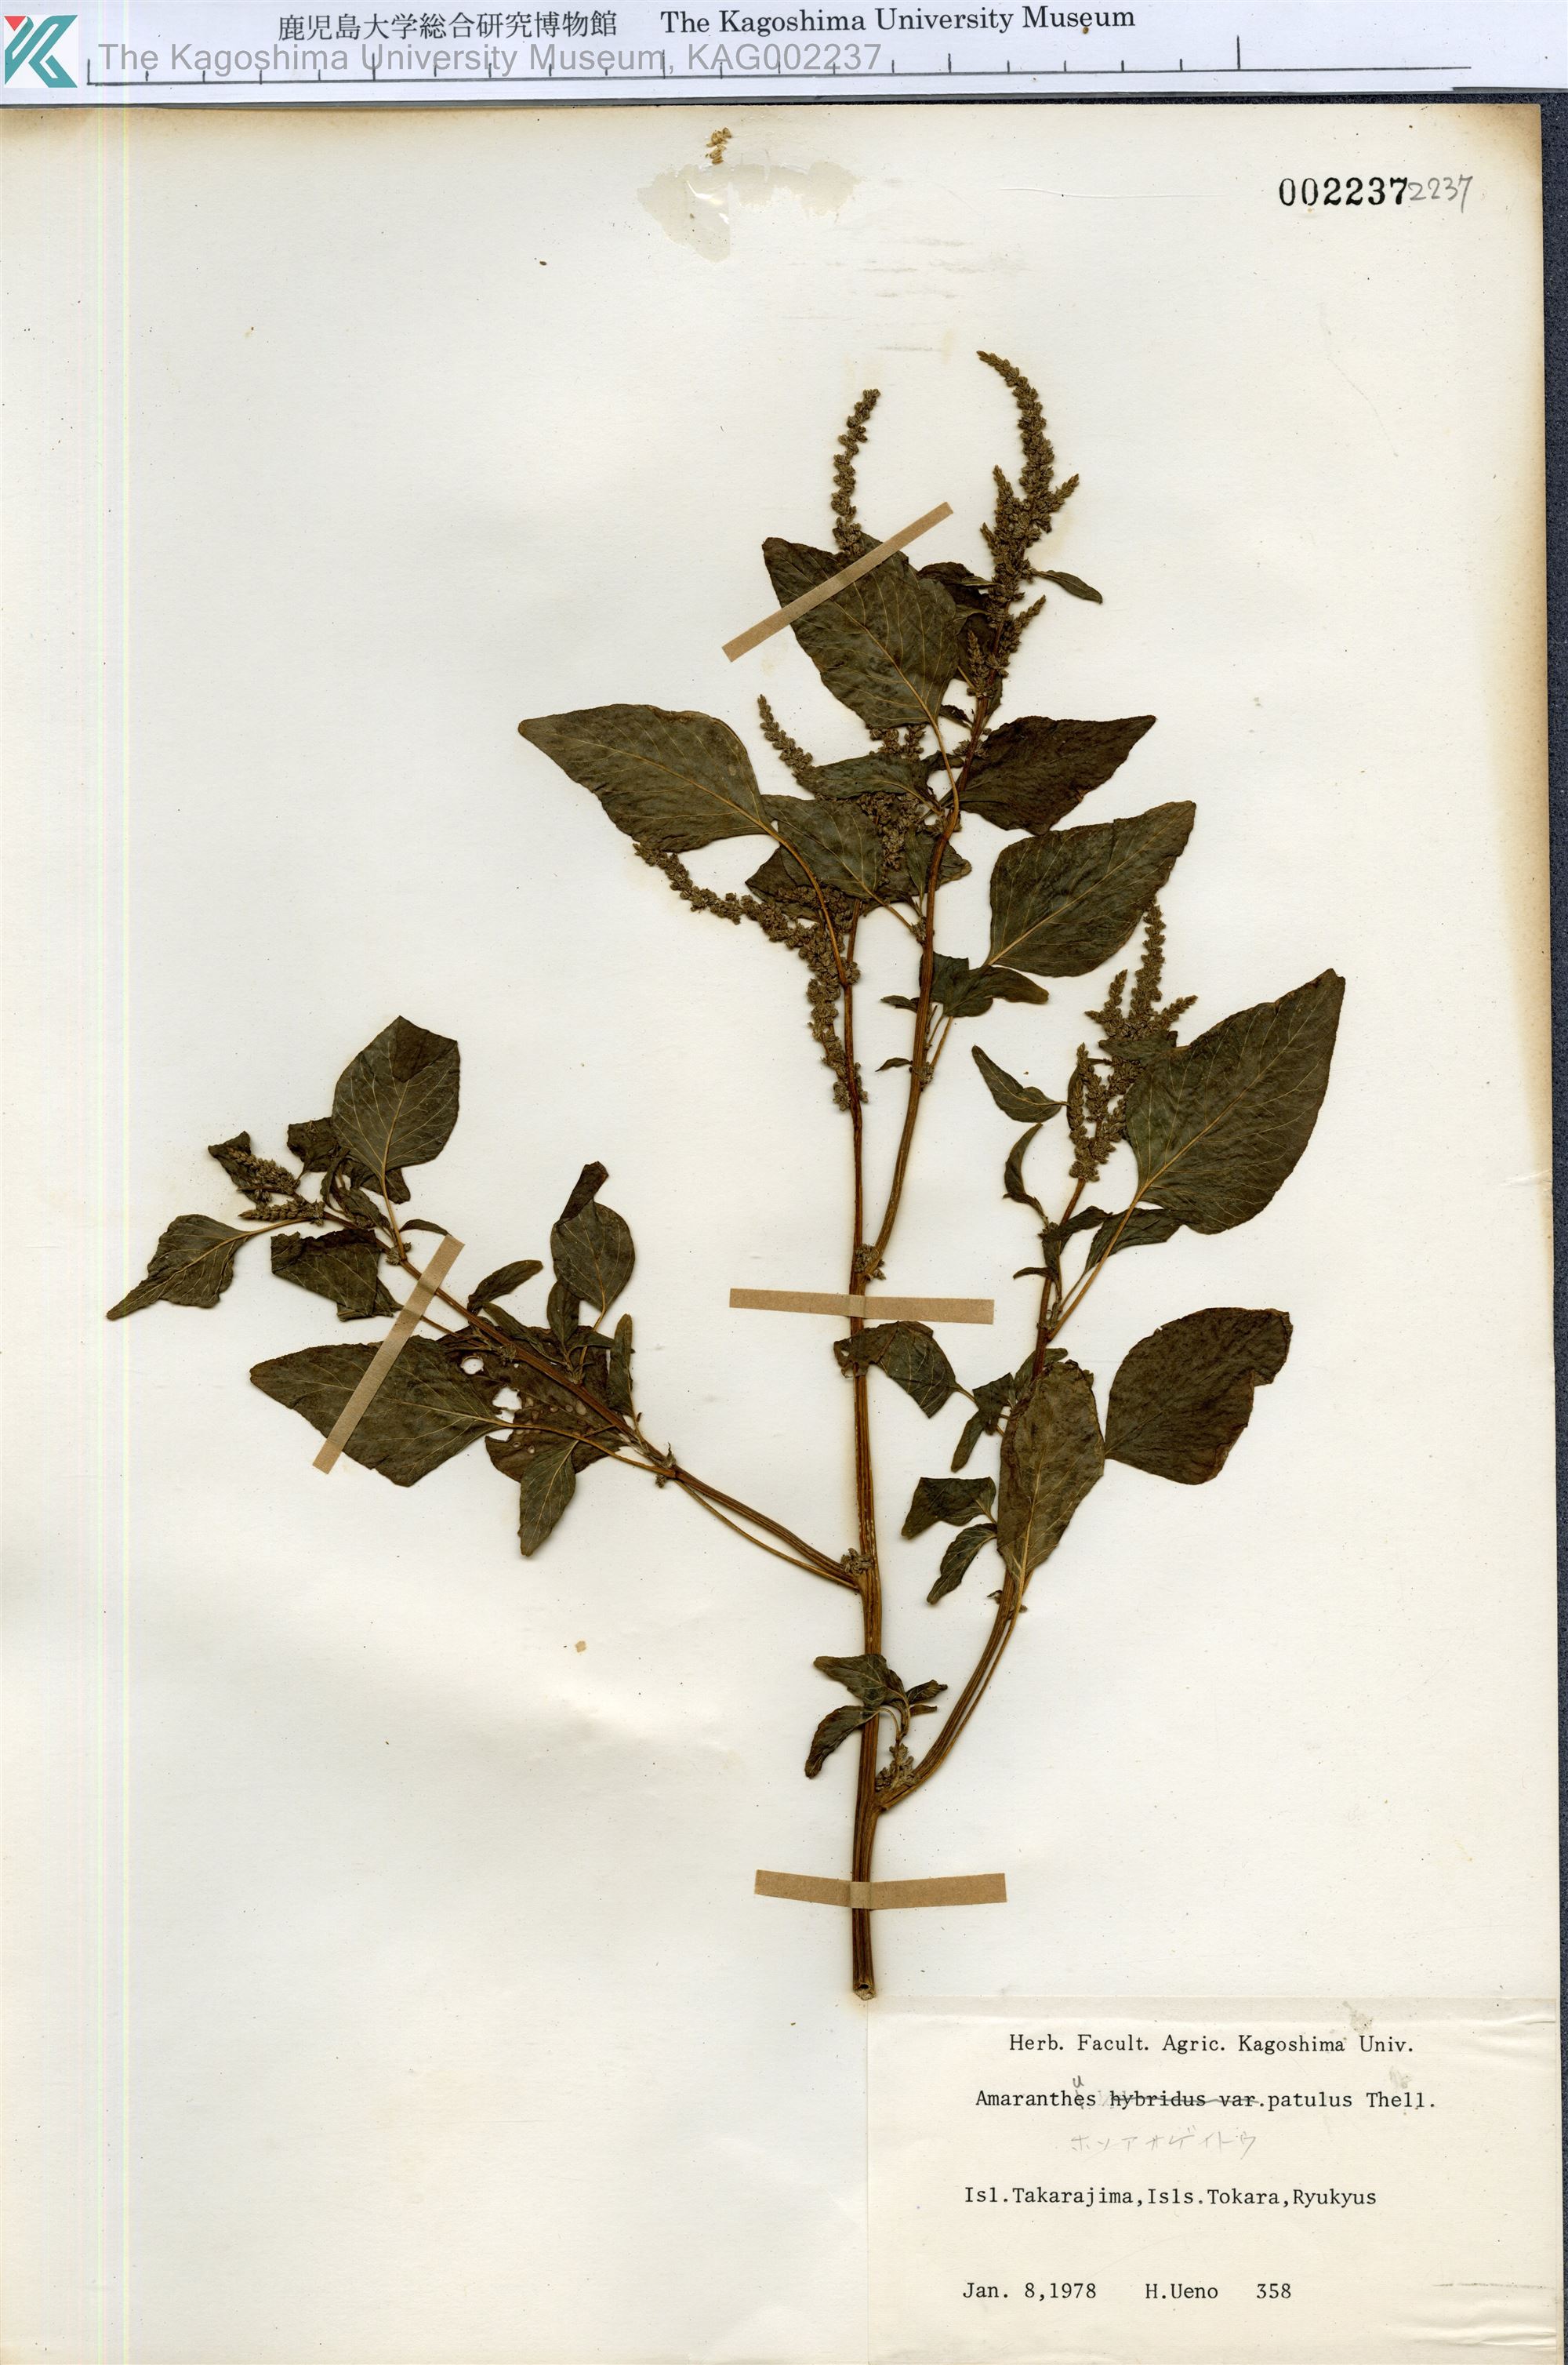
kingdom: Plantae
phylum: Tracheophyta
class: Magnoliopsida
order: Caryophyllales
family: Amaranthaceae
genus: Amaranthus
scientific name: Amaranthus hybridus
